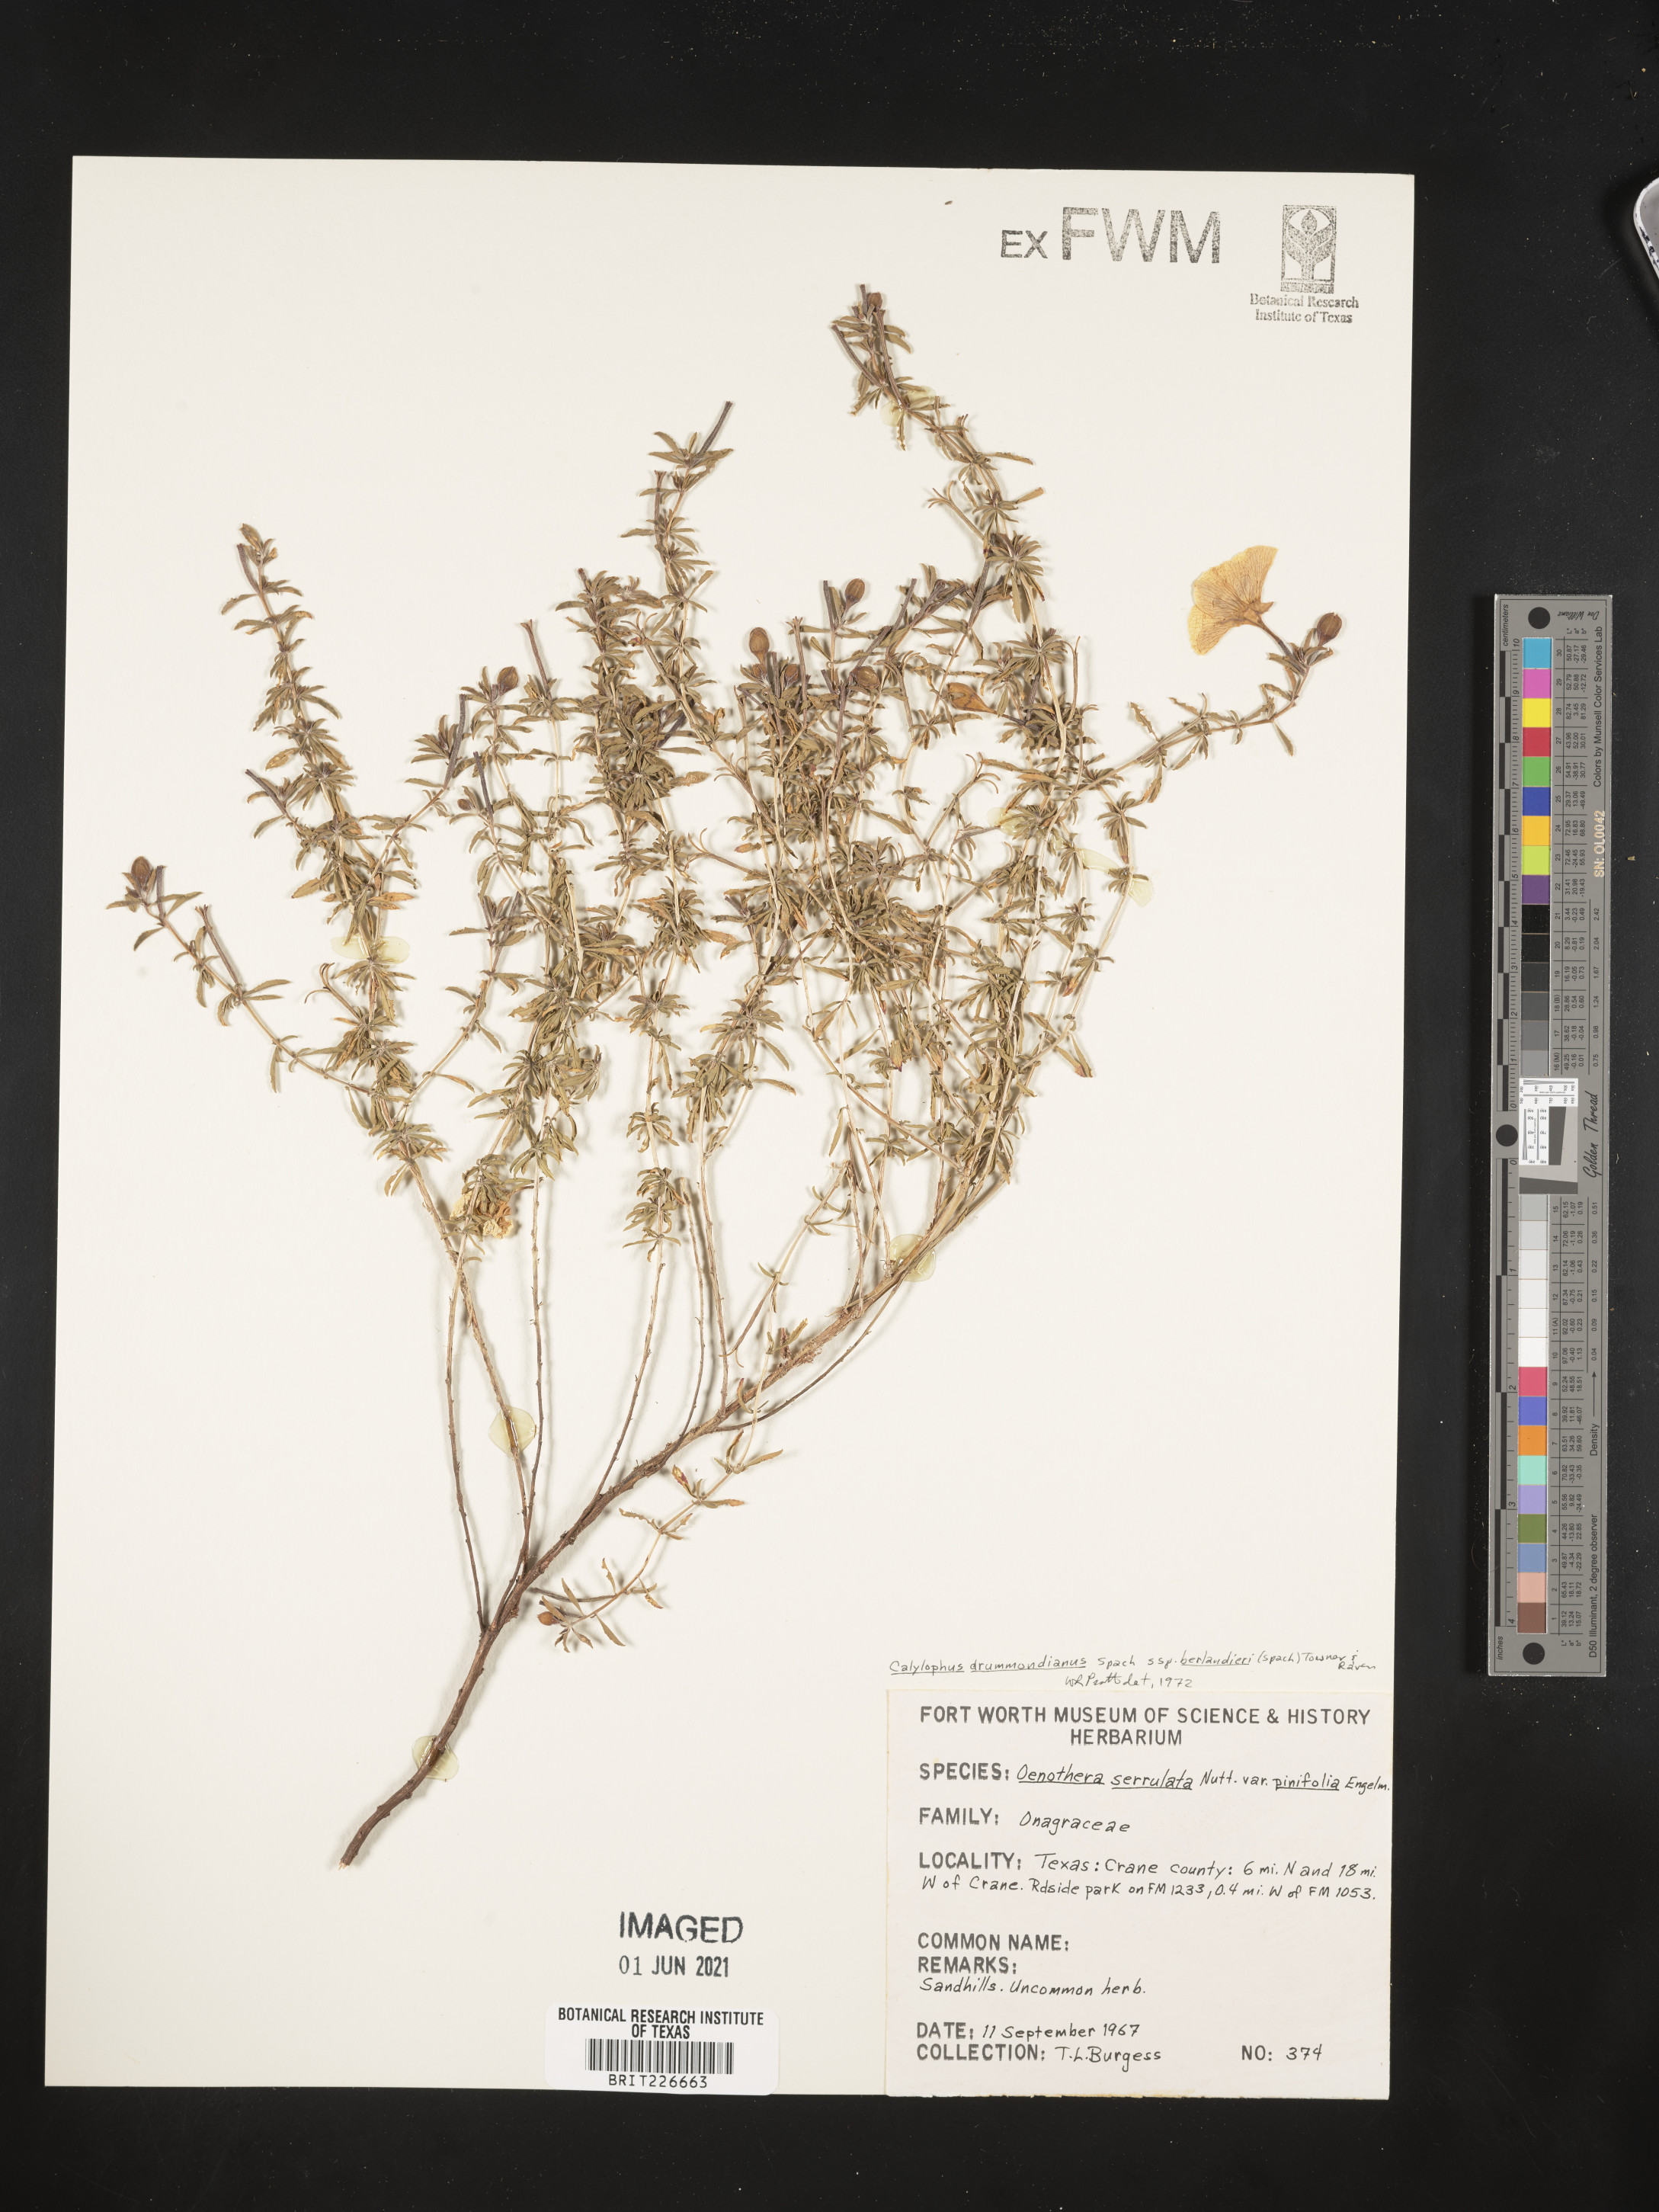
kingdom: Plantae
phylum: Tracheophyta
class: Magnoliopsida
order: Myrtales
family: Onagraceae
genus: Oenothera
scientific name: Oenothera capillifolia
